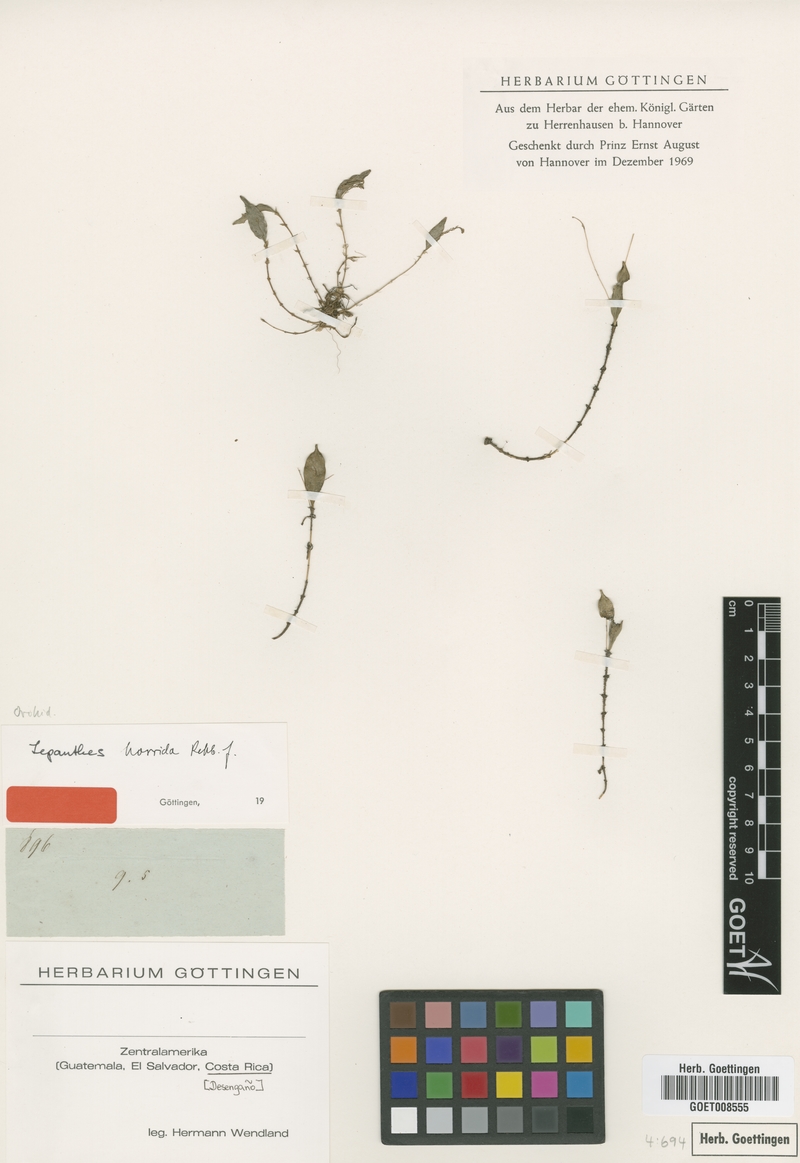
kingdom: Plantae
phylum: Tracheophyta
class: Liliopsida
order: Asparagales
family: Orchidaceae
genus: Lepanthes
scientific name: Lepanthes horrida
